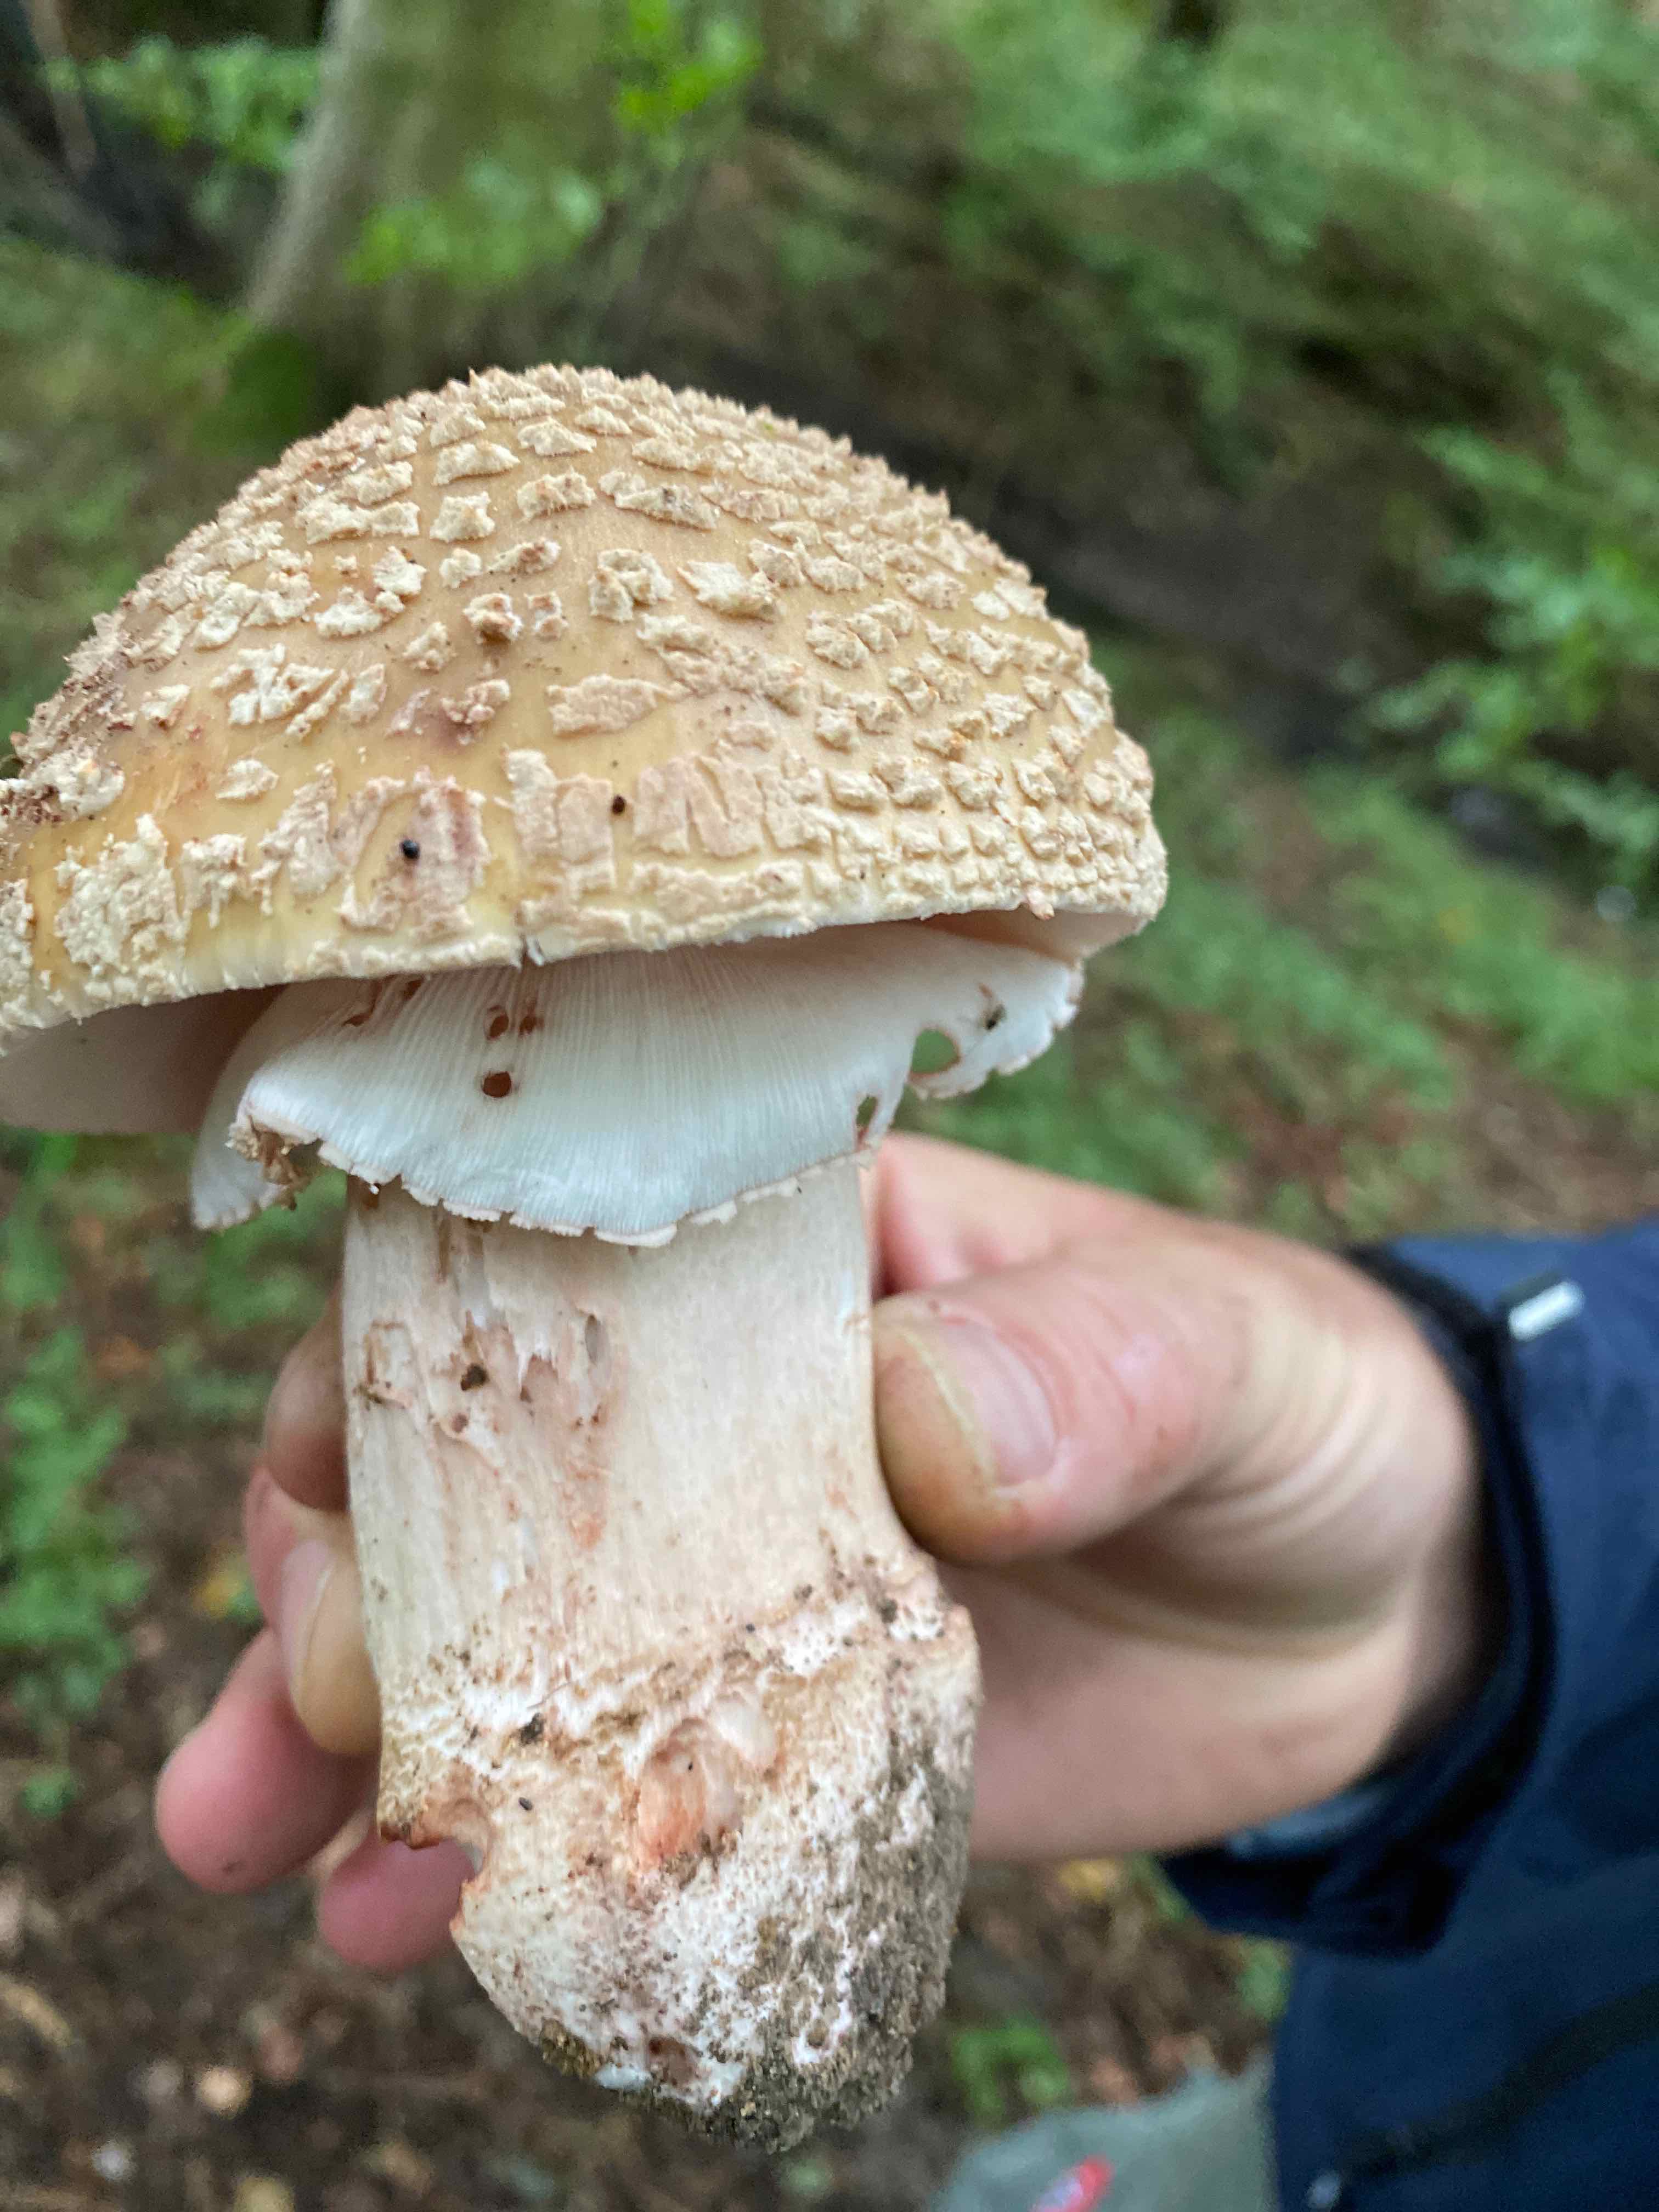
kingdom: Fungi
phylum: Basidiomycota
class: Agaricomycetes
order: Agaricales
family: Amanitaceae
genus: Amanita
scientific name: Amanita rubescens
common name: rødmende fluesvamp
